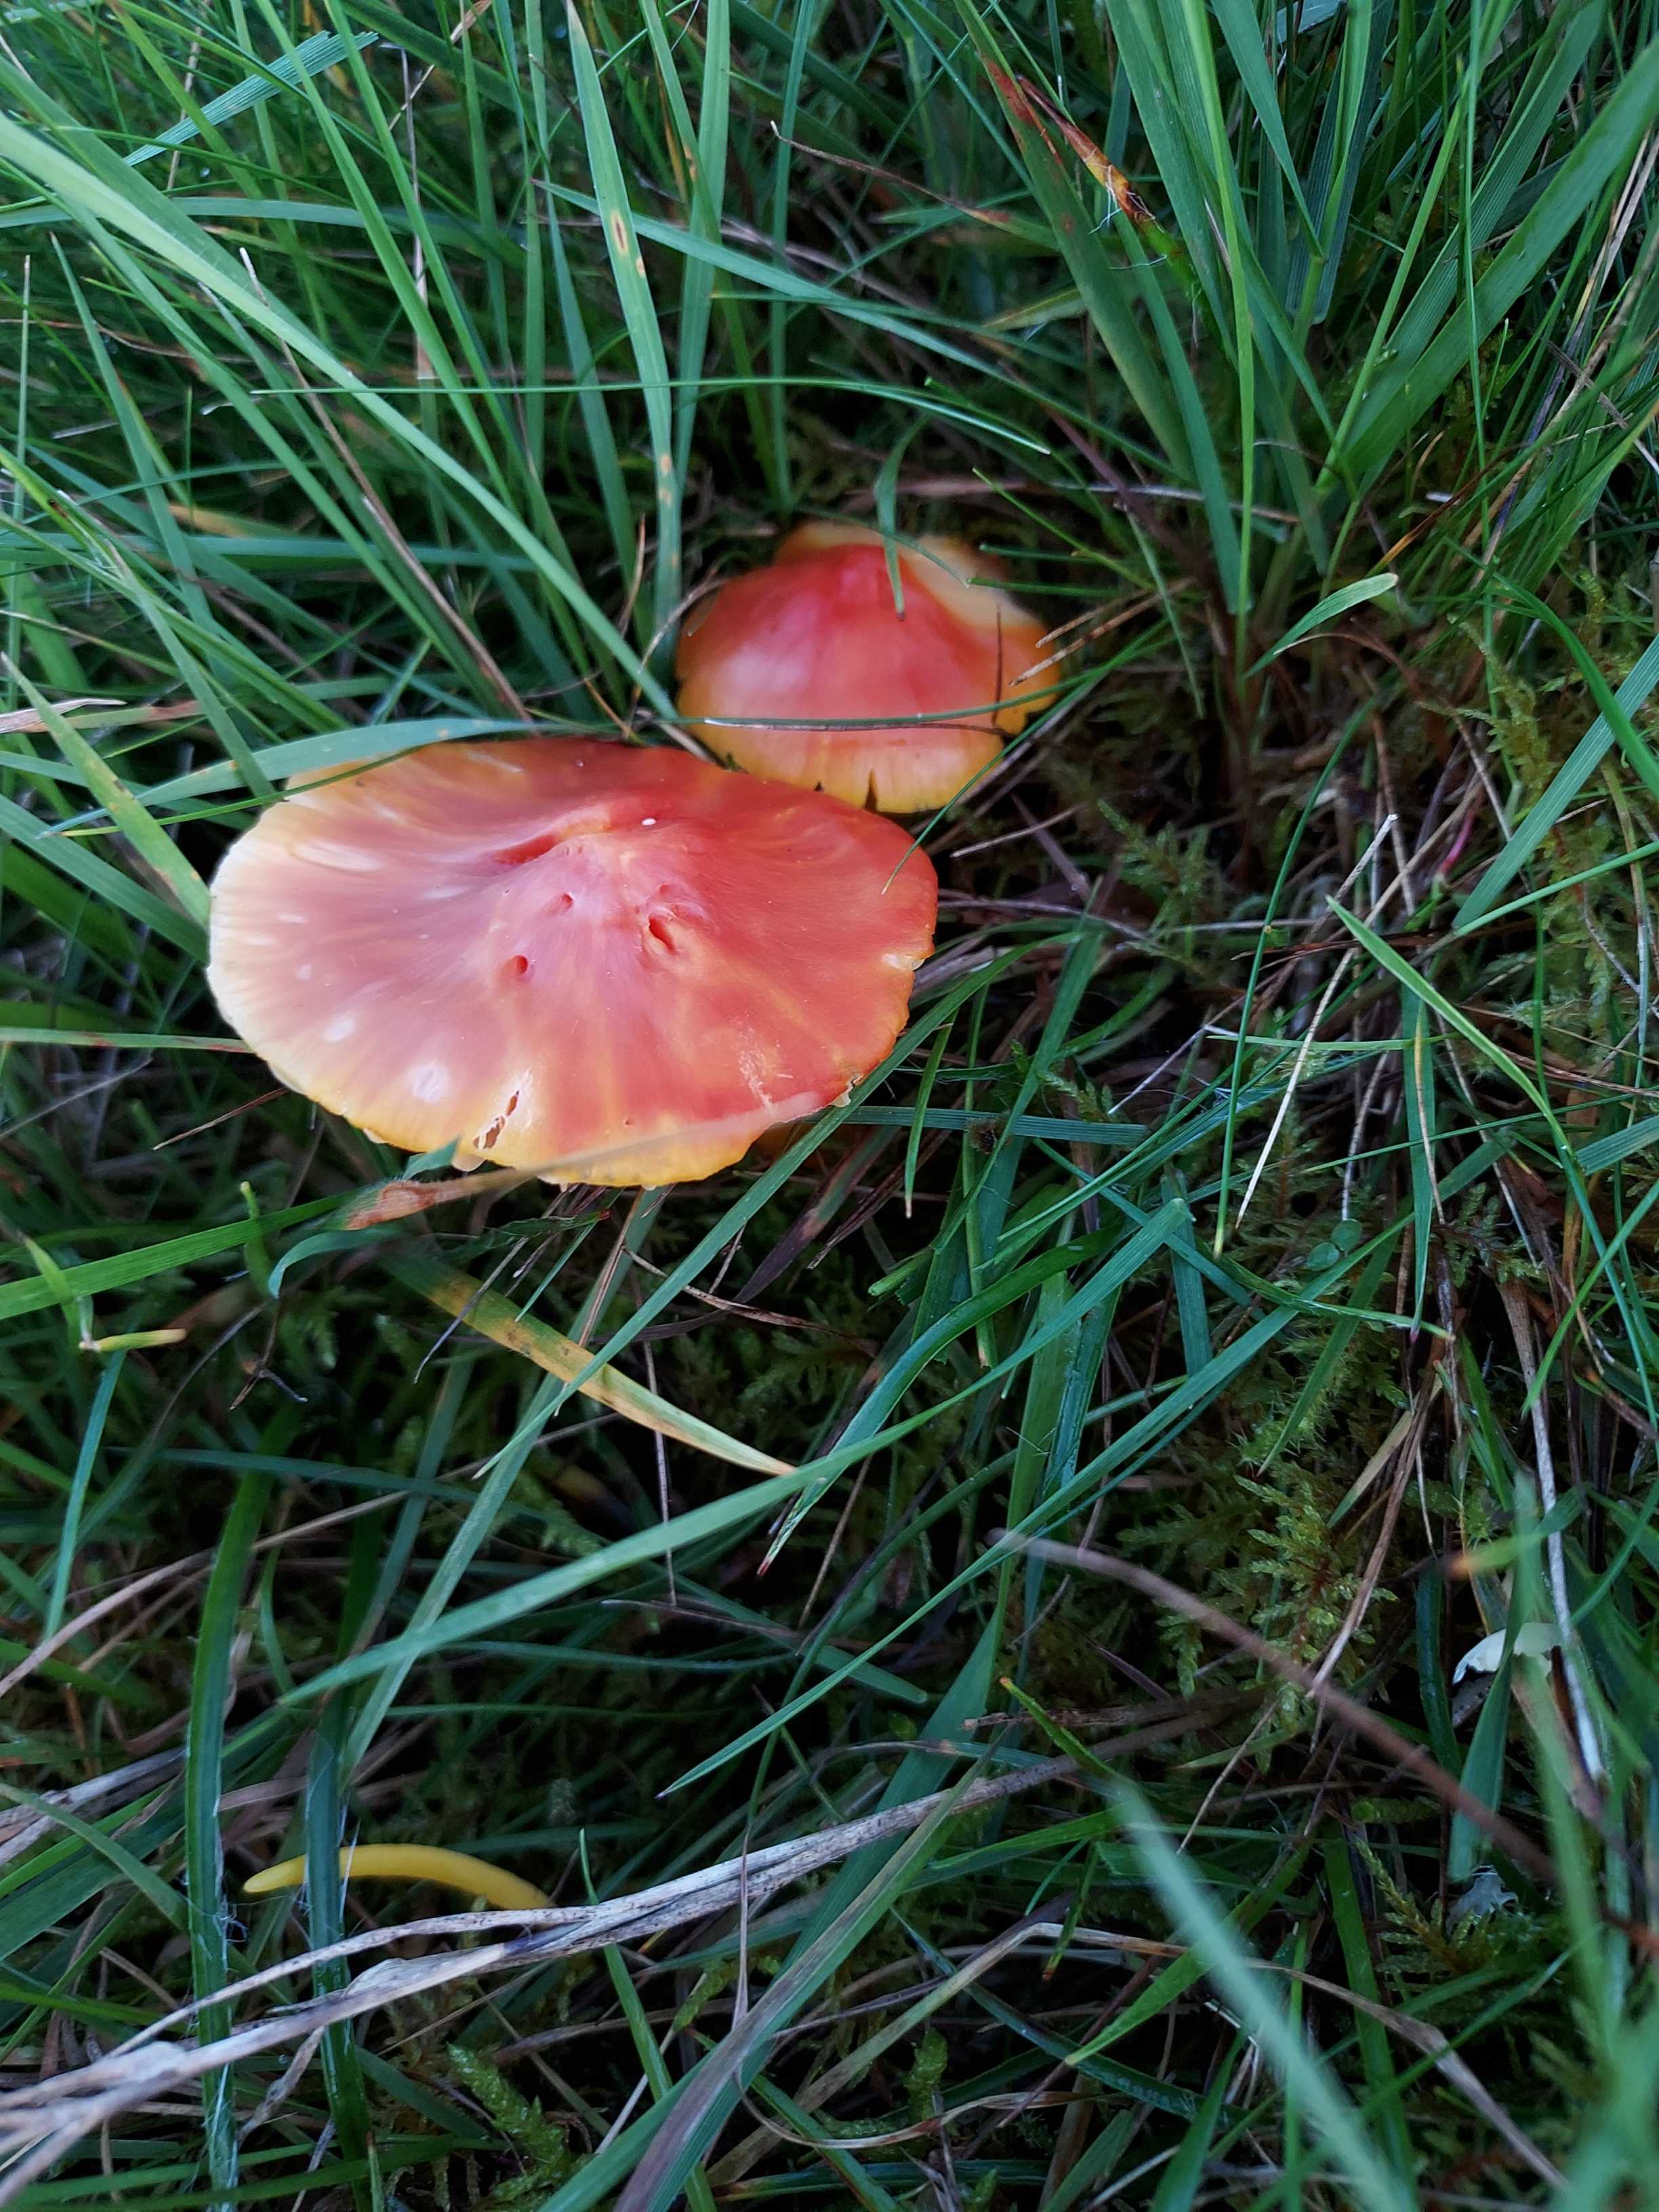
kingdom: Fungi
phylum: Basidiomycota
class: Agaricomycetes
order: Agaricales
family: Hygrophoraceae
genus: Hygrocybe
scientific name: Hygrocybe coccinea
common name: cinnober-vokshat
